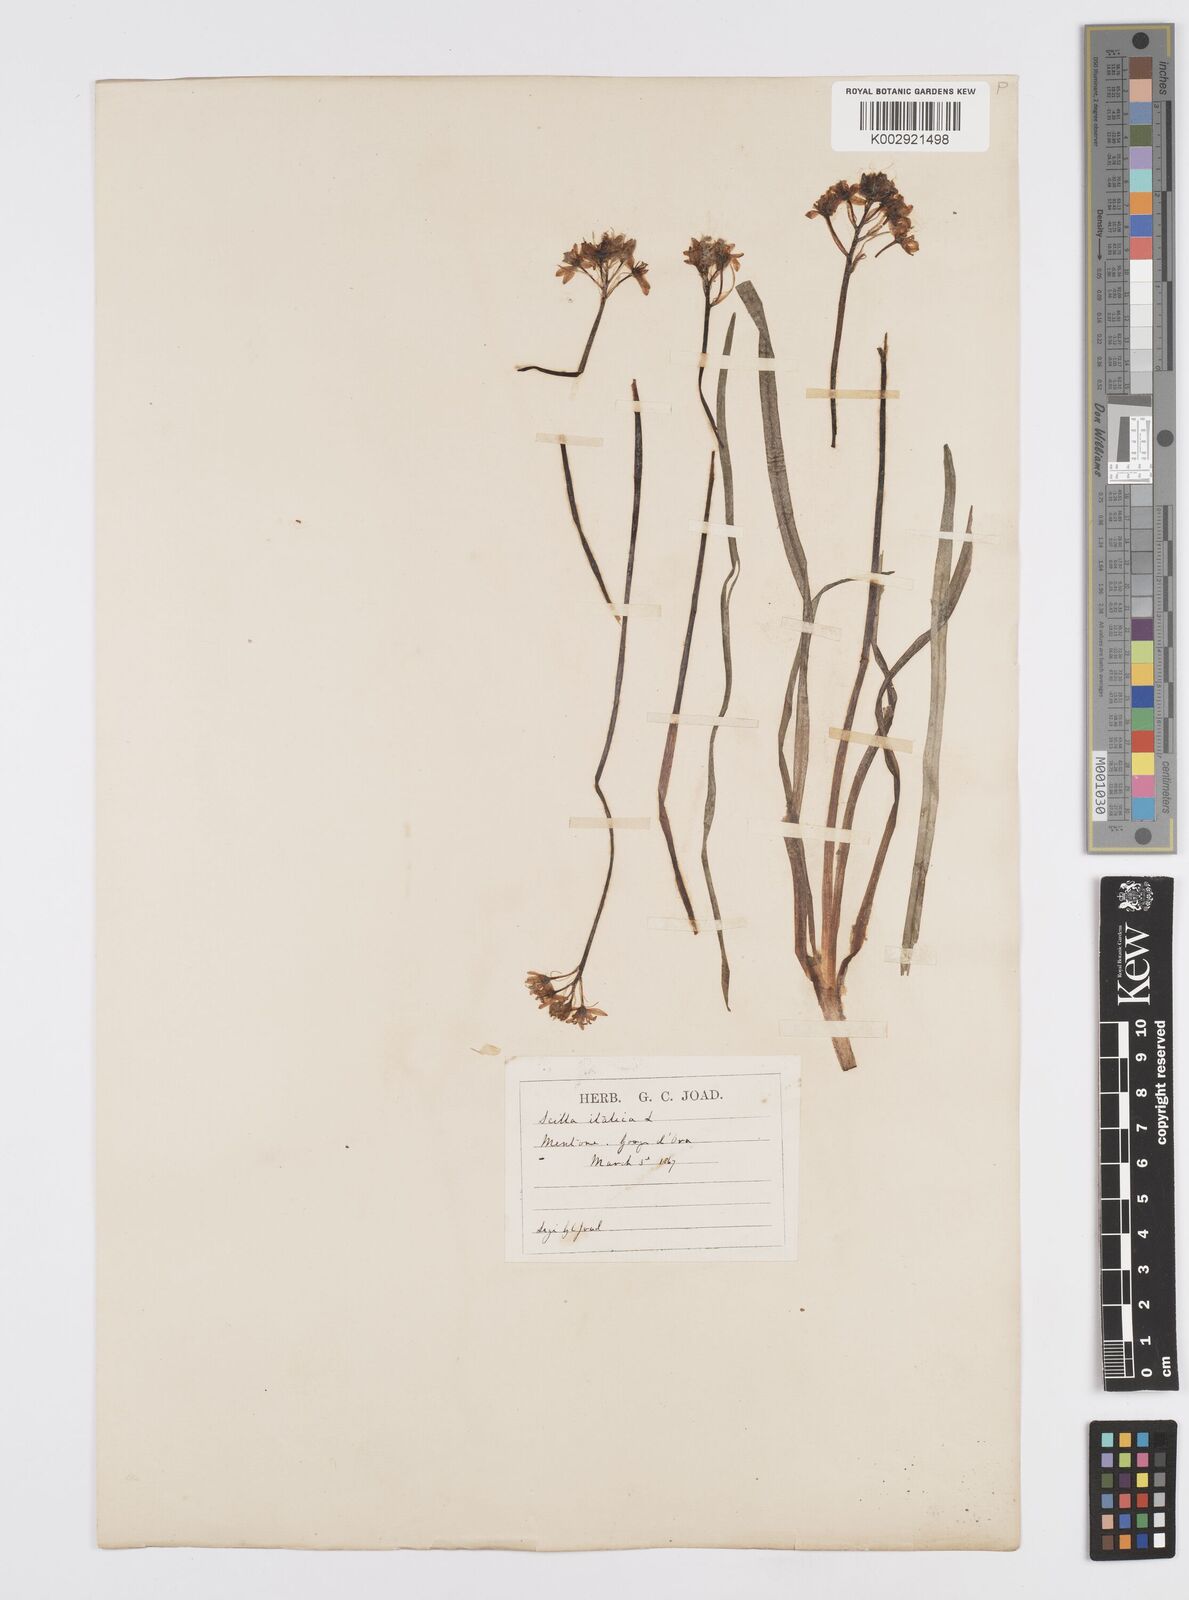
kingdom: Plantae
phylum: Tracheophyta
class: Liliopsida
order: Asparagales
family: Asparagaceae
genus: Hyacinthoides
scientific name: Hyacinthoides italica
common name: Italian bluebell
